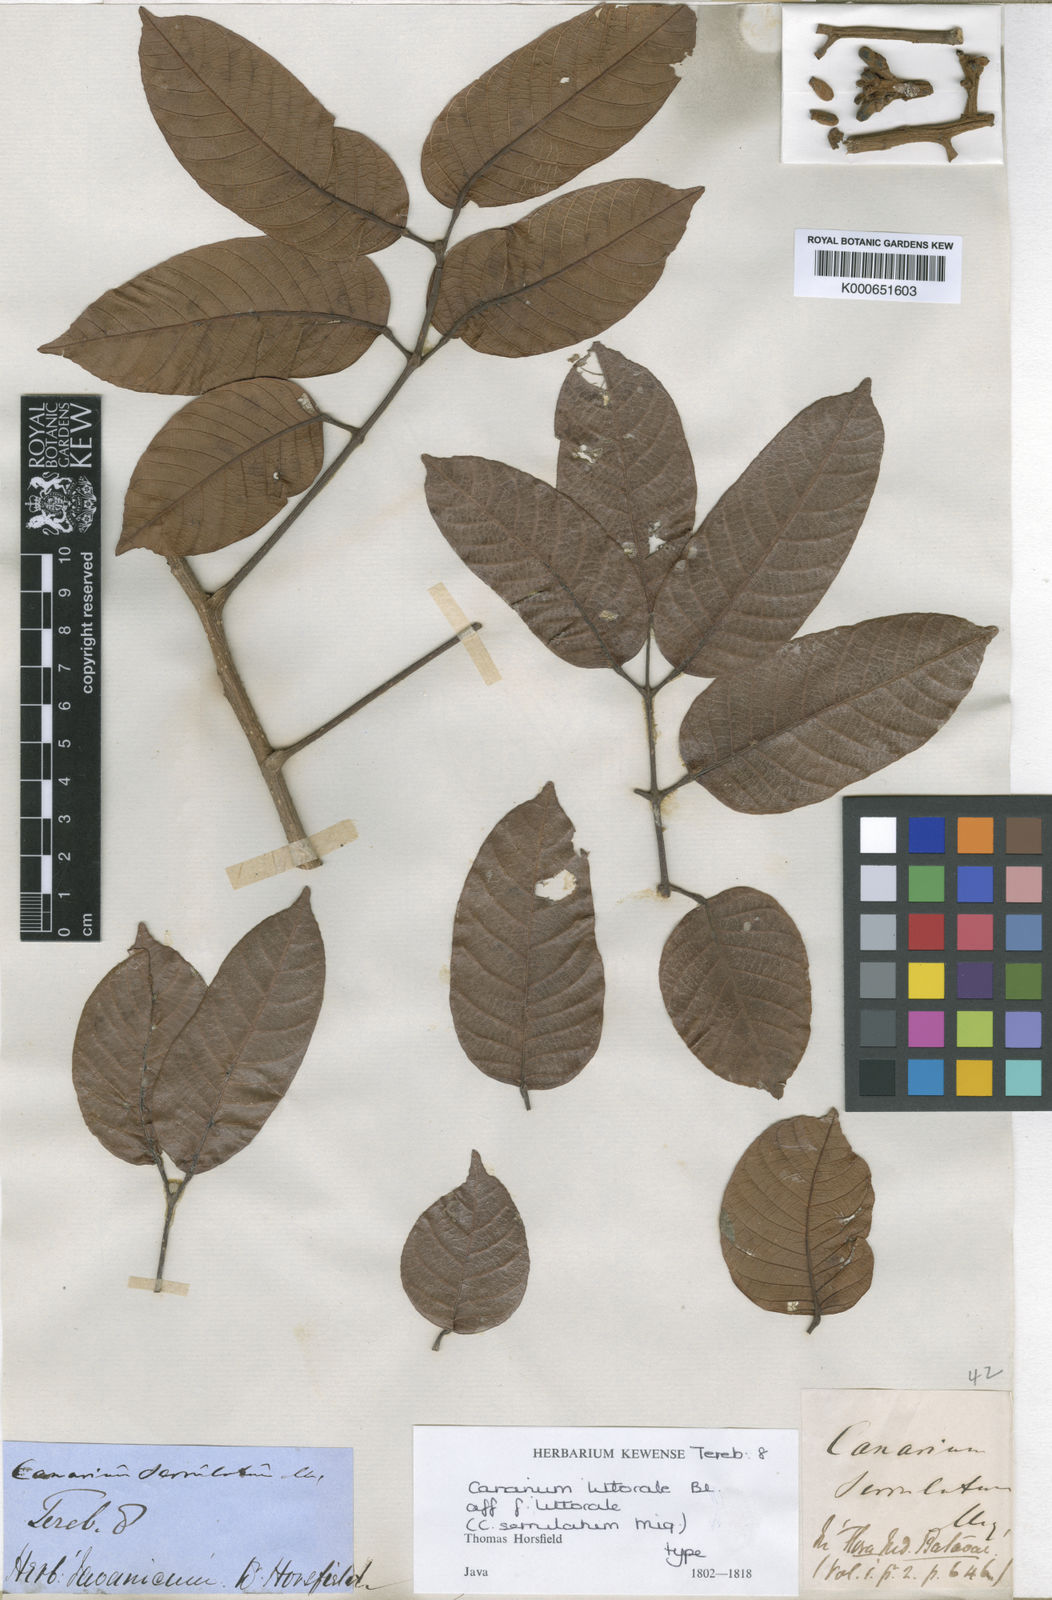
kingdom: Plantae
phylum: Tracheophyta
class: Magnoliopsida
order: Sapindales
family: Burseraceae
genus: Canarium
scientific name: Canarium littorale
